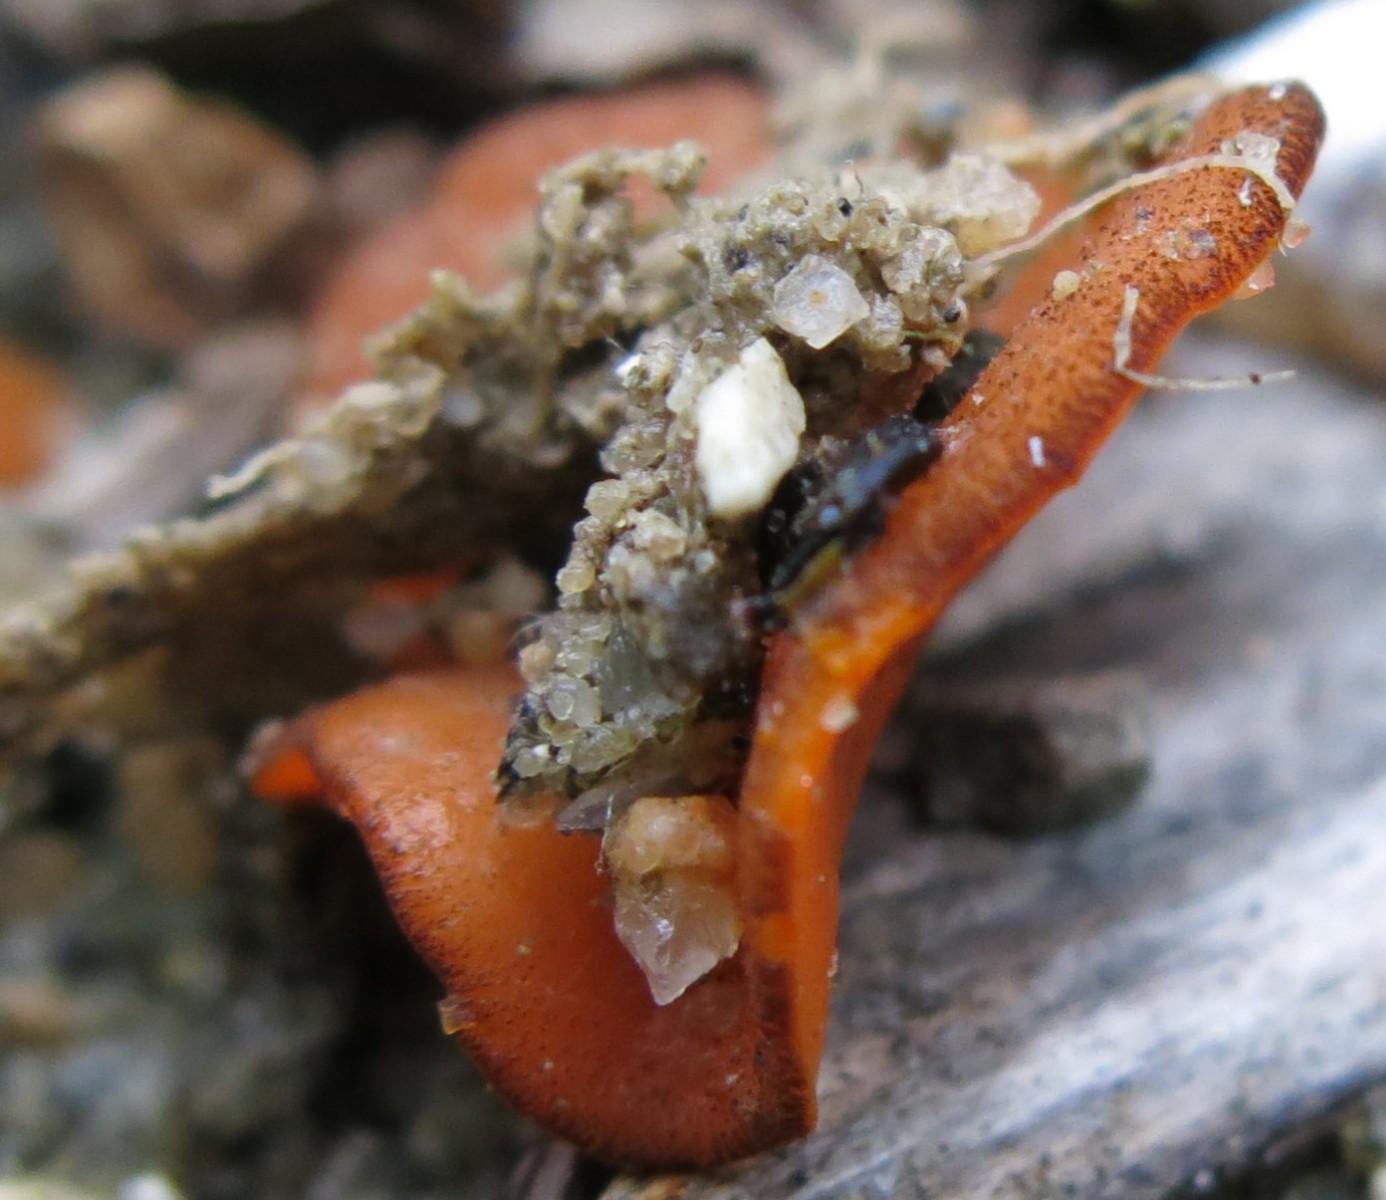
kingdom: Fungi
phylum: Ascomycota
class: Pezizomycetes
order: Pezizales
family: Pyronemataceae
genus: Melastiza
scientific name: Melastiza cornubiensis
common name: mørkrandet rødbæger
